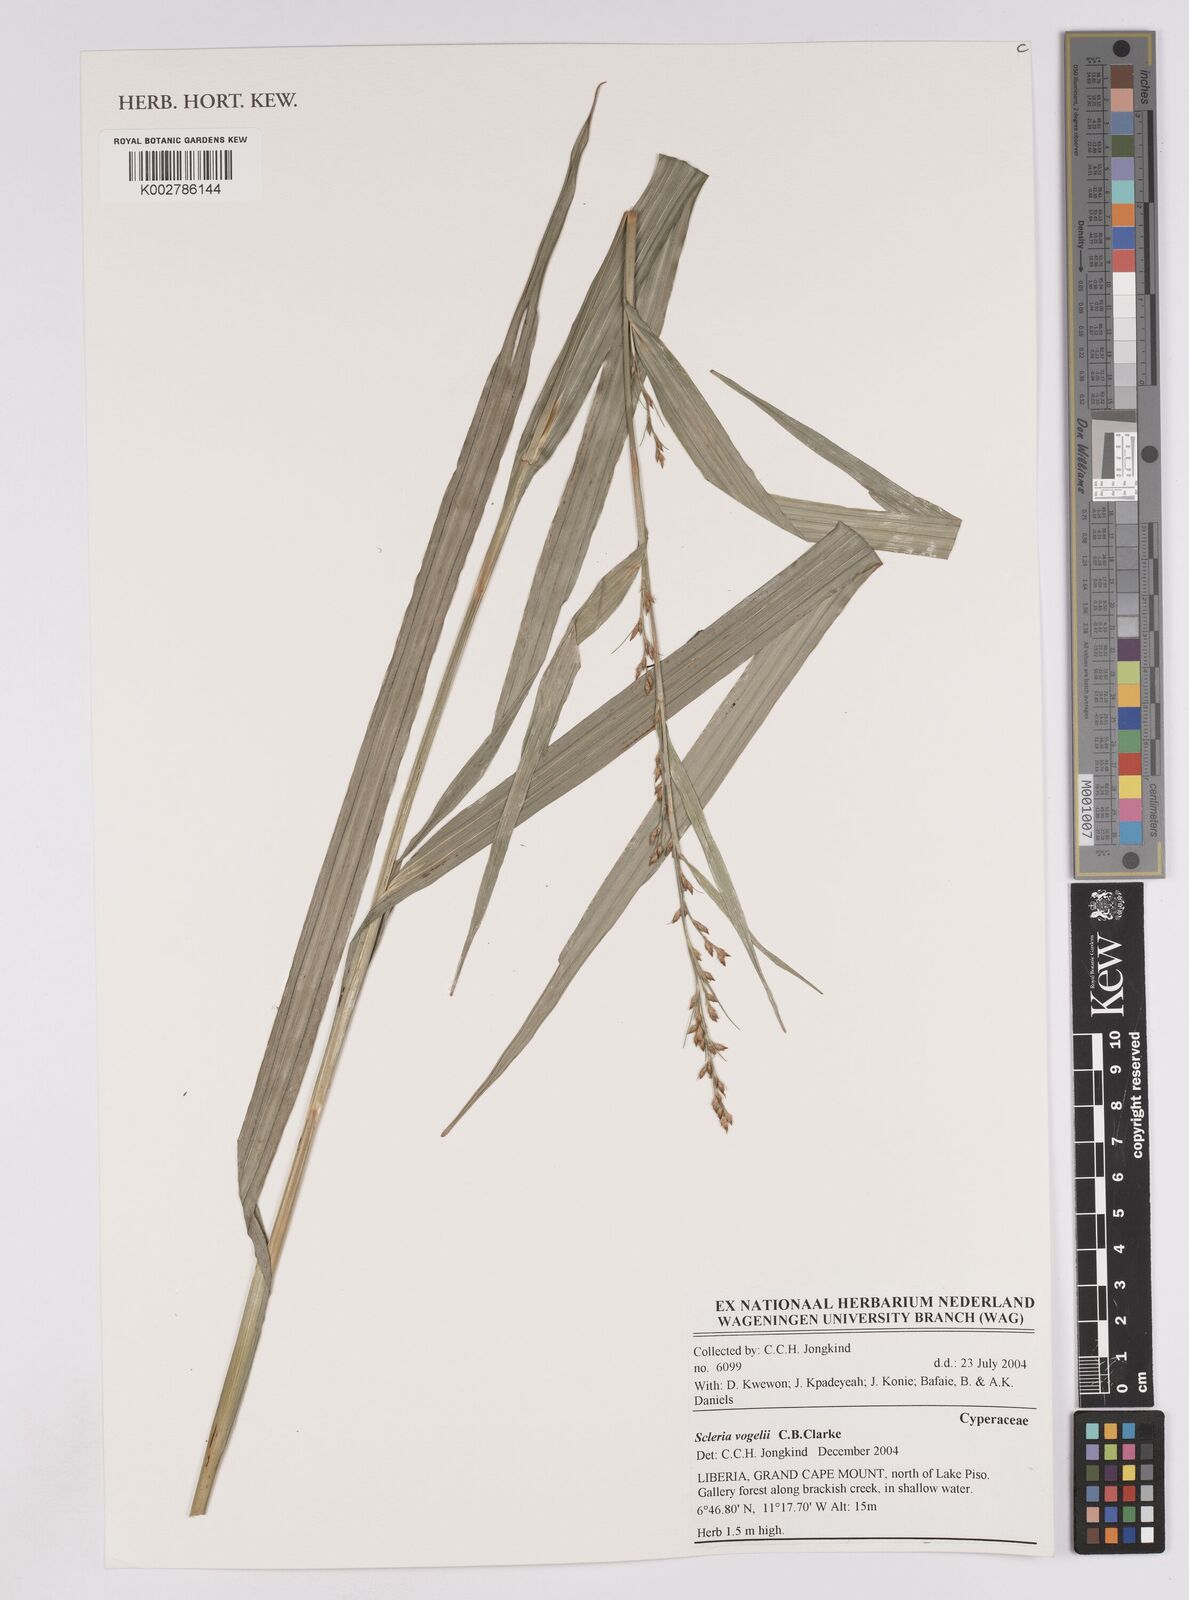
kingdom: Plantae
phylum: Tracheophyta
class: Liliopsida
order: Poales
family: Cyperaceae
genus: Scleria
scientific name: Scleria vogelii
